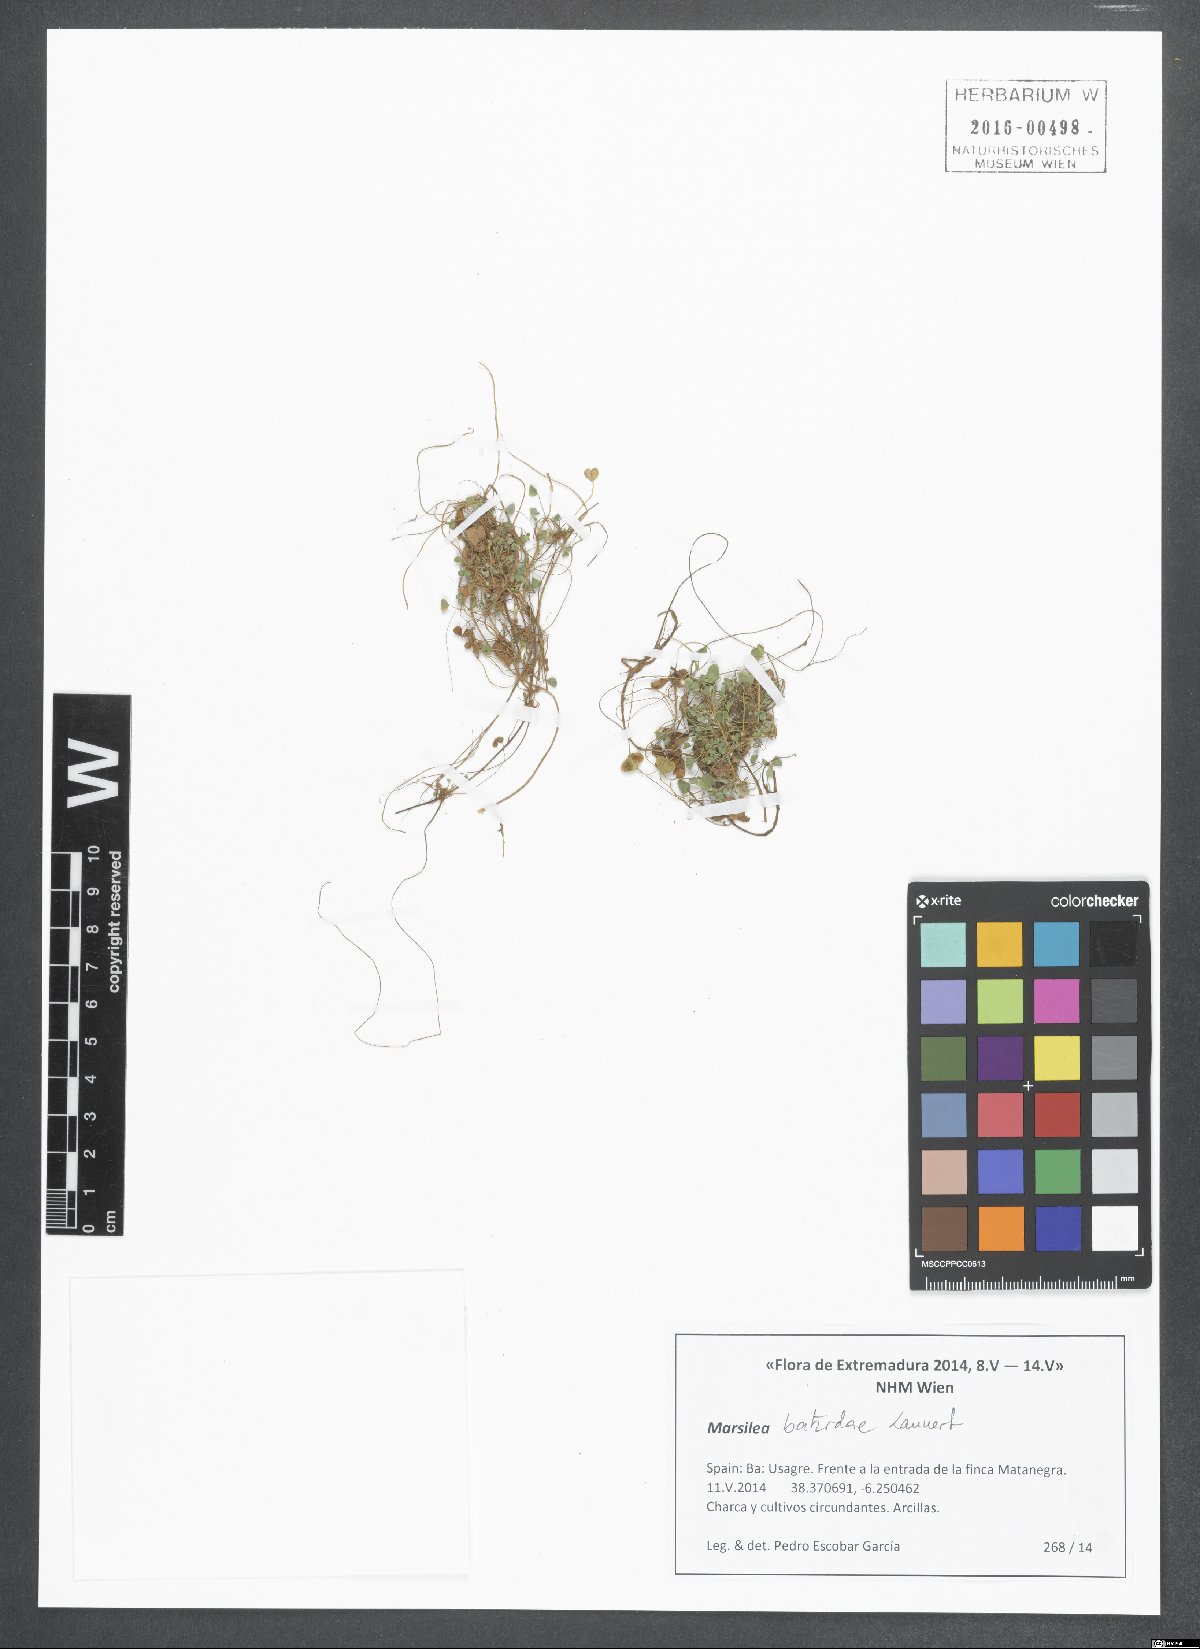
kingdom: Plantae
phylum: Tracheophyta
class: Polypodiopsida
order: Salviniales
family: Marsileaceae
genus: Marsilea
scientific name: Marsilea batardae
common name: Lusitanian water clover
